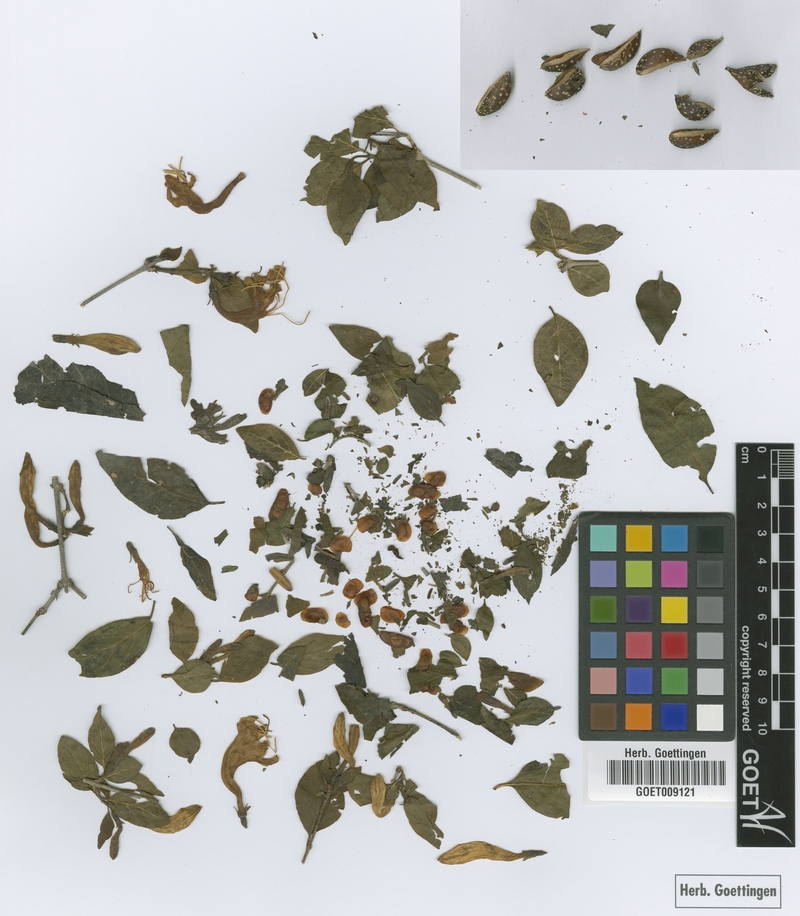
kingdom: Plantae
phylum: Tracheophyta
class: Magnoliopsida
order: Gentianales
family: Rubiaceae
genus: Coutarea
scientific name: Coutarea hexandra
